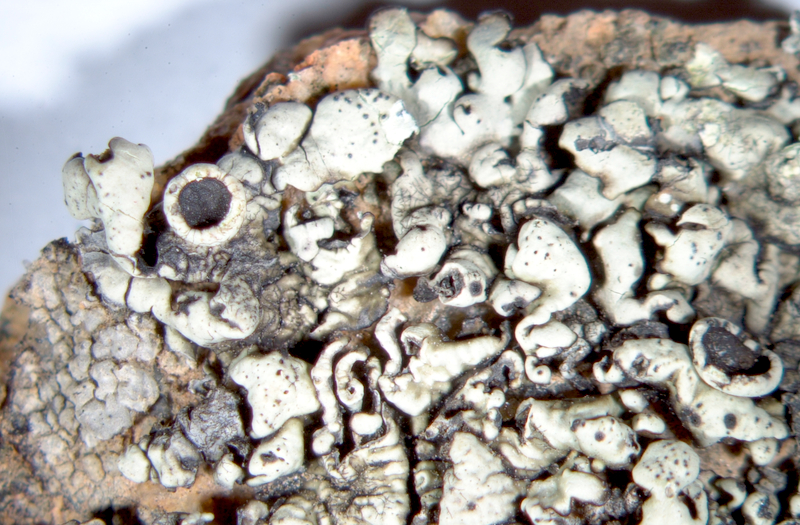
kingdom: Fungi
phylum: Ascomycota
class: Lecanoromycetes
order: Lecanorales
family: Parmeliaceae
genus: Parmelia
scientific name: Parmelia
